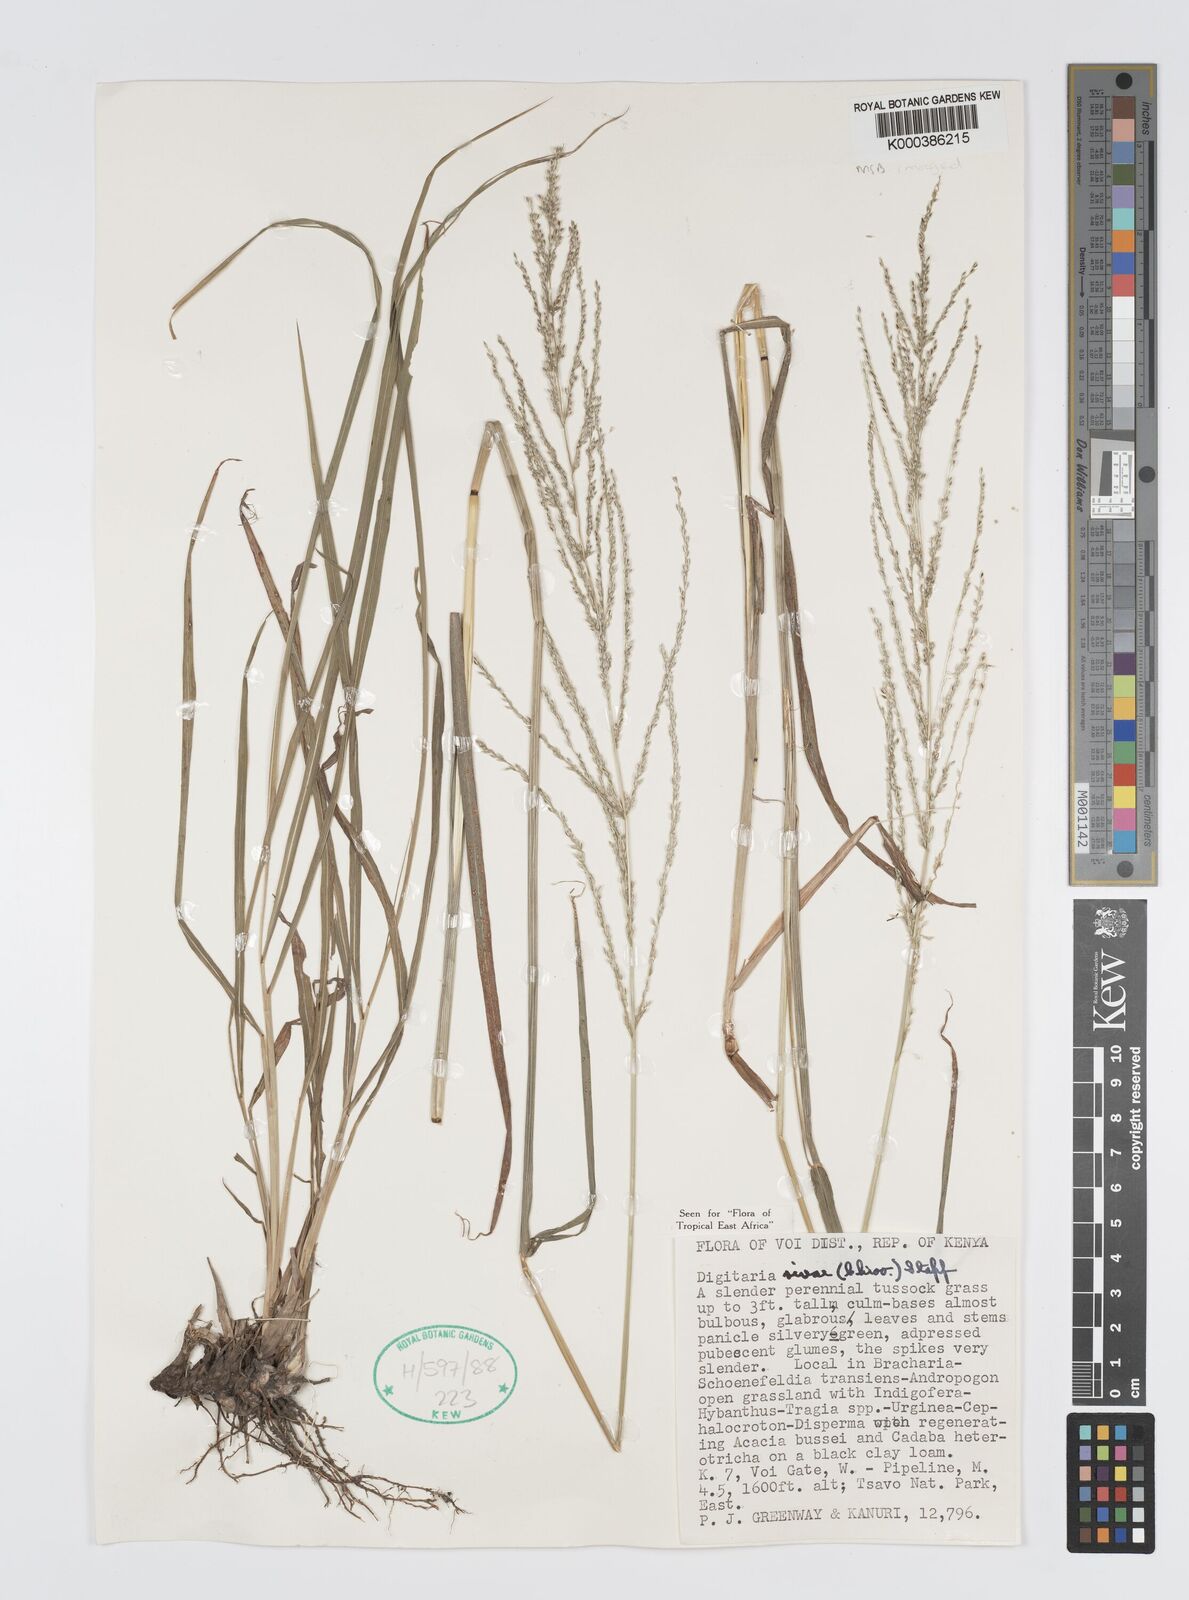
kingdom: Plantae
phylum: Tracheophyta
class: Liliopsida
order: Poales
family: Poaceae
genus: Digitaria
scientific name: Digitaria rivae
